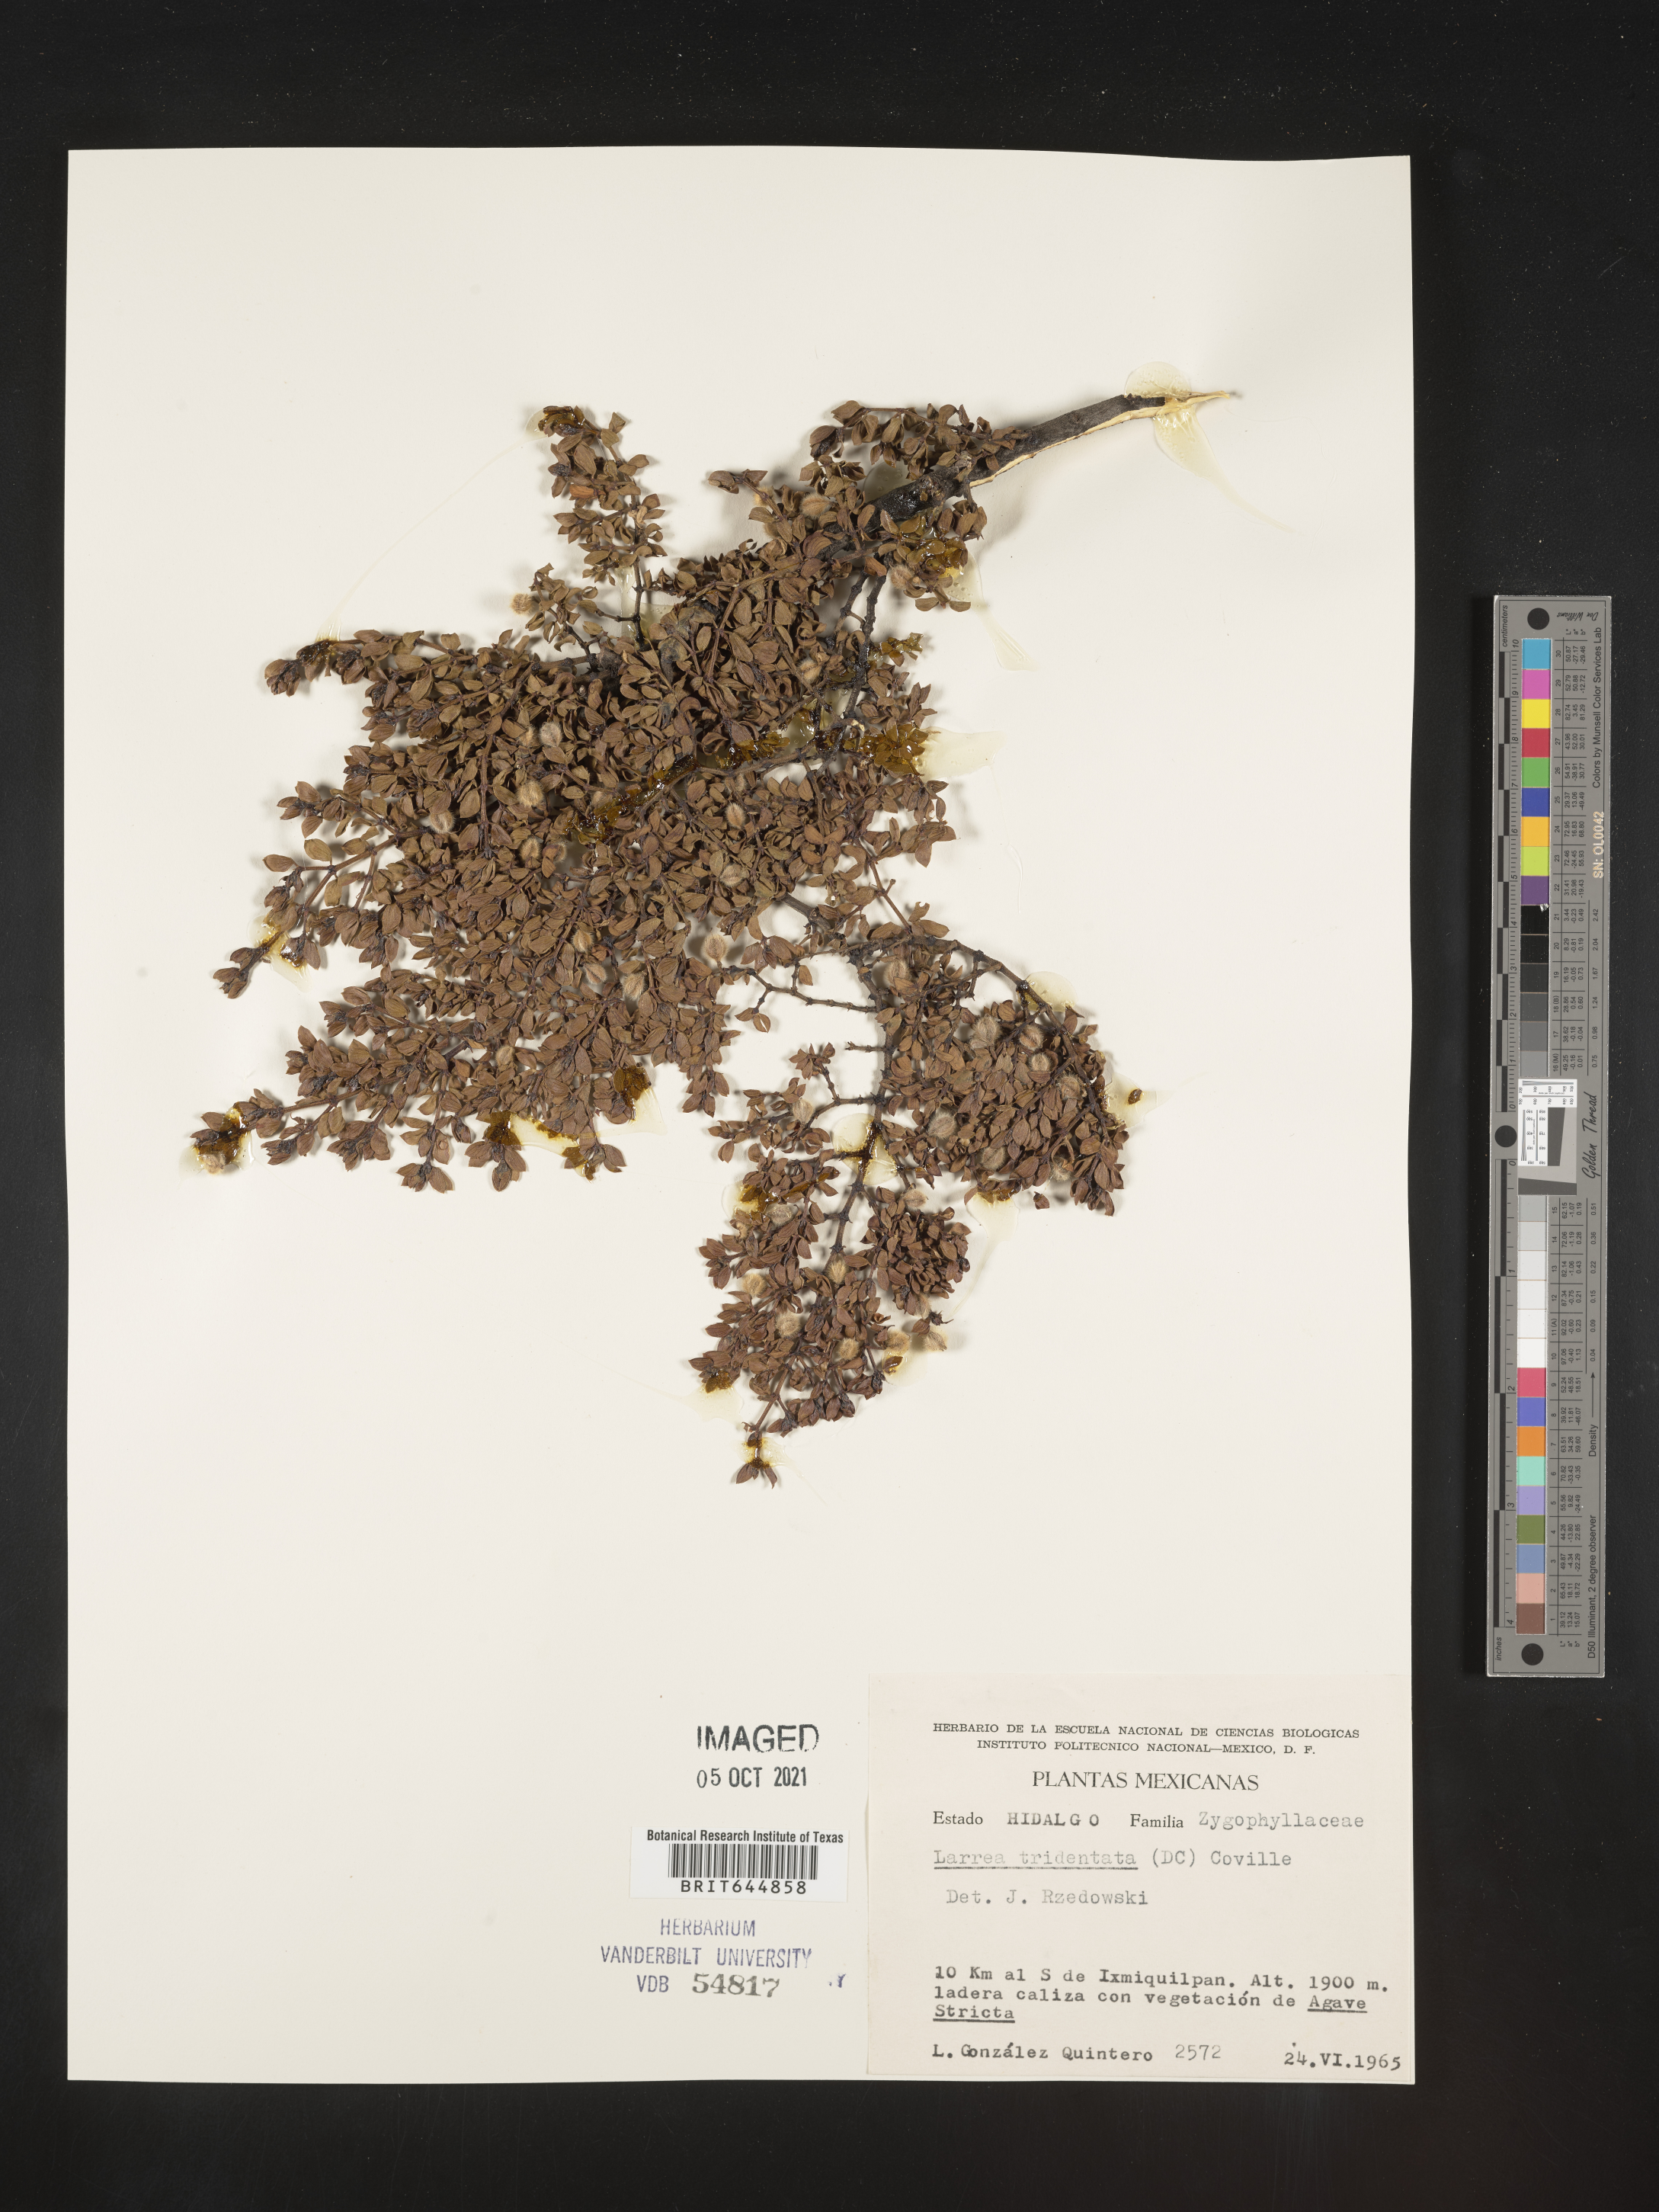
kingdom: Plantae
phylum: Tracheophyta
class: Magnoliopsida
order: Zygophyllales
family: Zygophyllaceae
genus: Larrea
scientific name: Larrea
